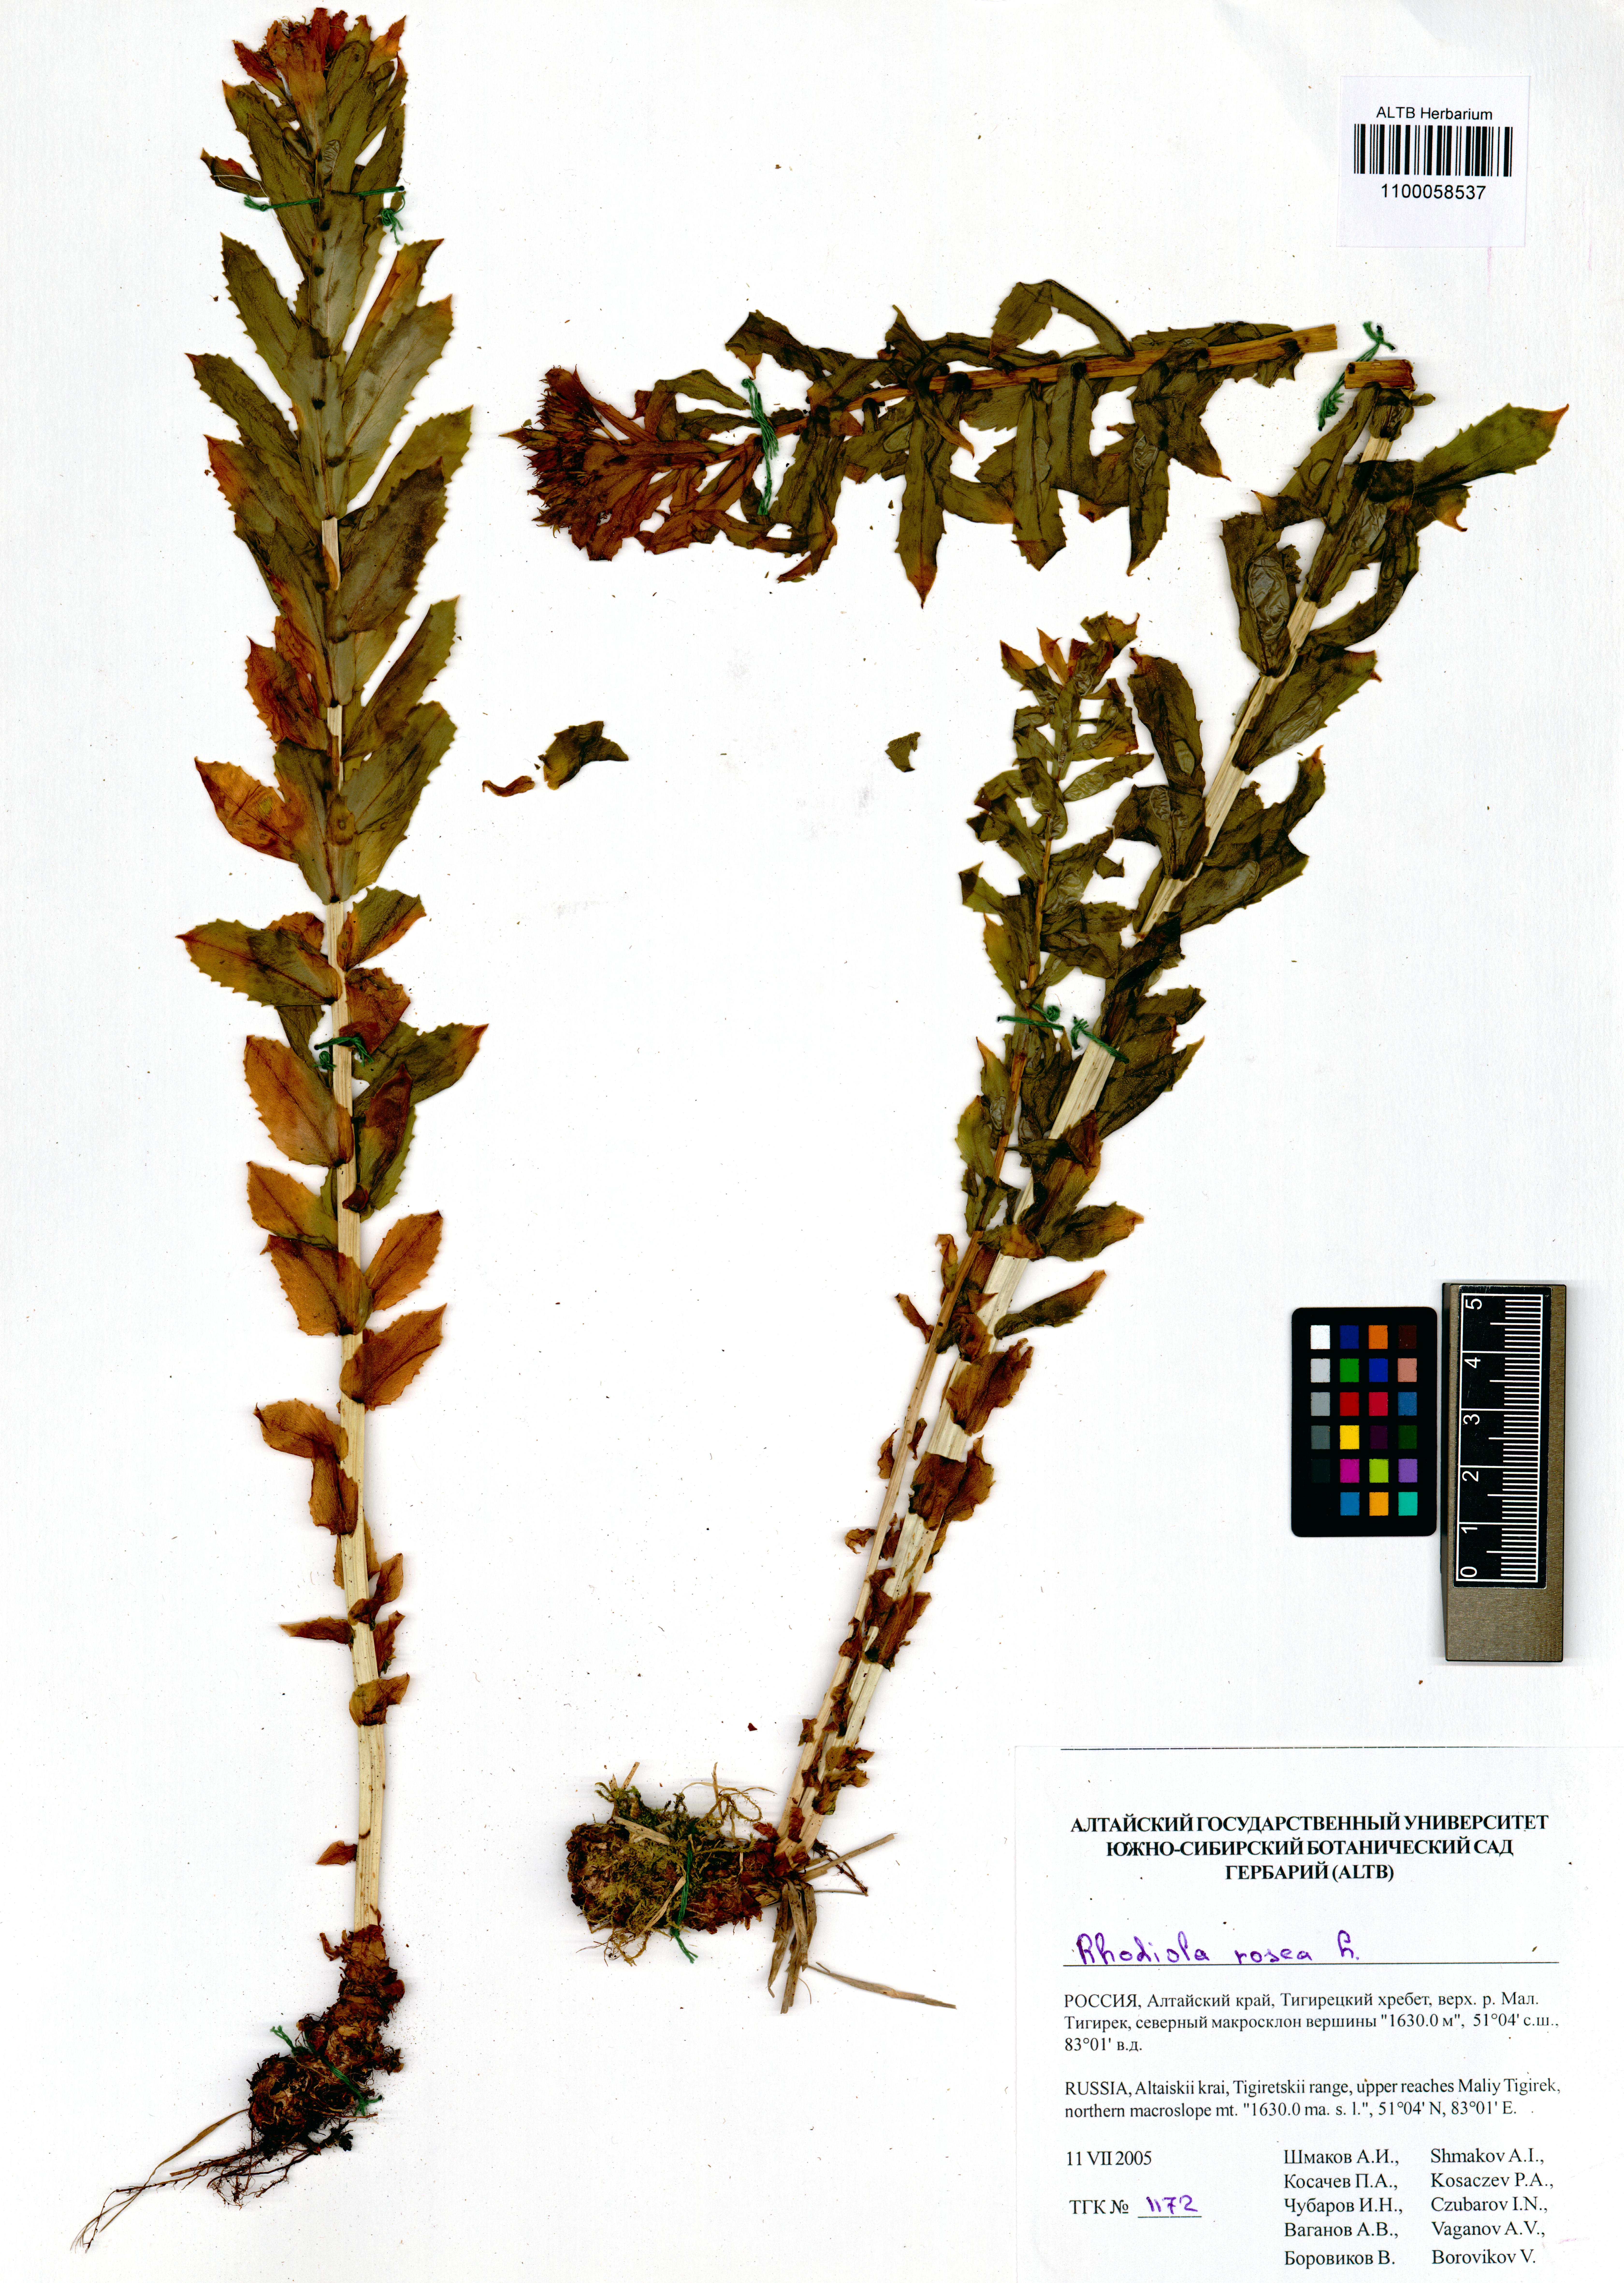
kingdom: Plantae
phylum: Tracheophyta
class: Magnoliopsida
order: Saxifragales
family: Crassulaceae
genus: Rhodiola
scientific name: Rhodiola rosea
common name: Roseroot
